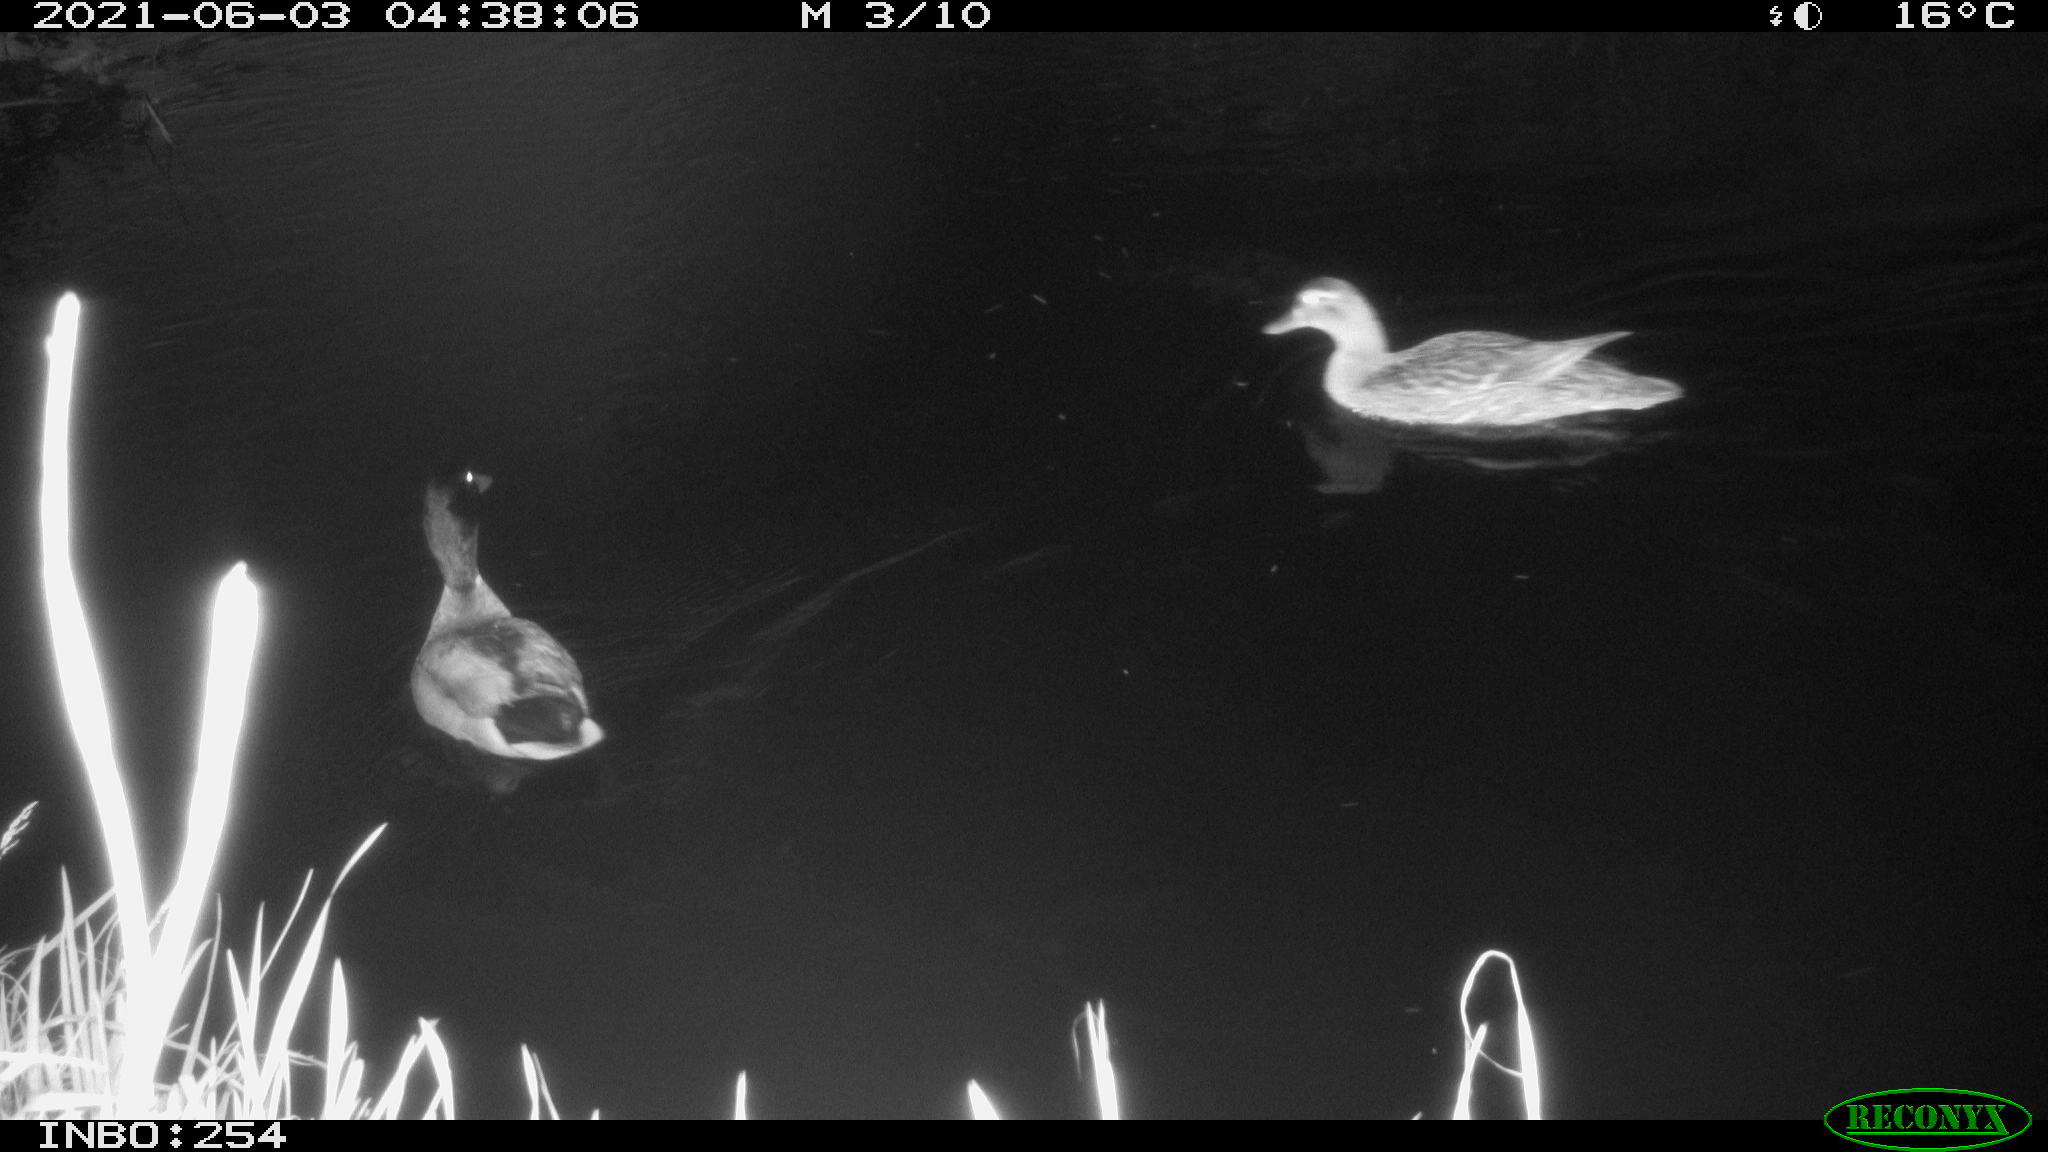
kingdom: Animalia
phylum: Chordata
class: Aves
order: Anseriformes
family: Anatidae
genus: Anas
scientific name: Anas platyrhynchos
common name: Mallard
